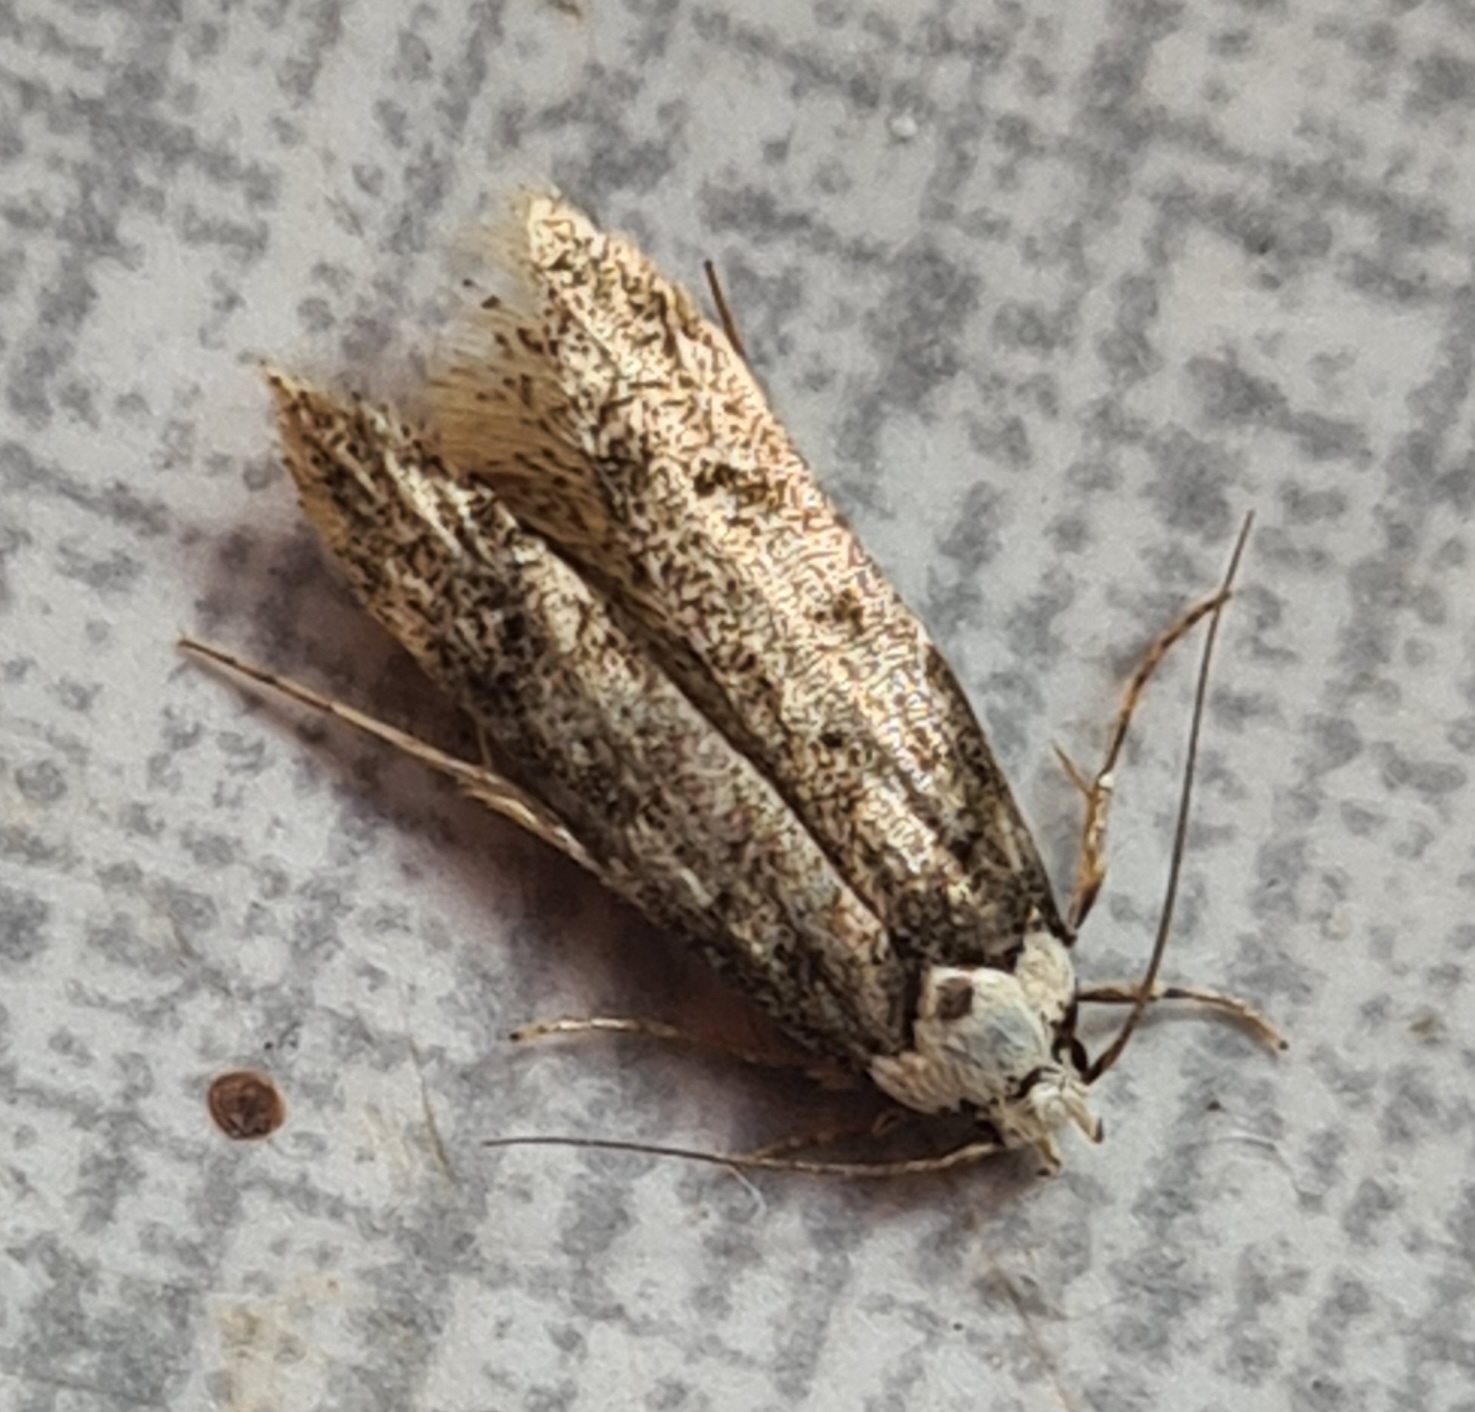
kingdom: Animalia
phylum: Arthropoda
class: Insecta
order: Lepidoptera
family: Oecophoridae
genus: Endrosis
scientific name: Endrosis sarcitrella
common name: Klistermøl
